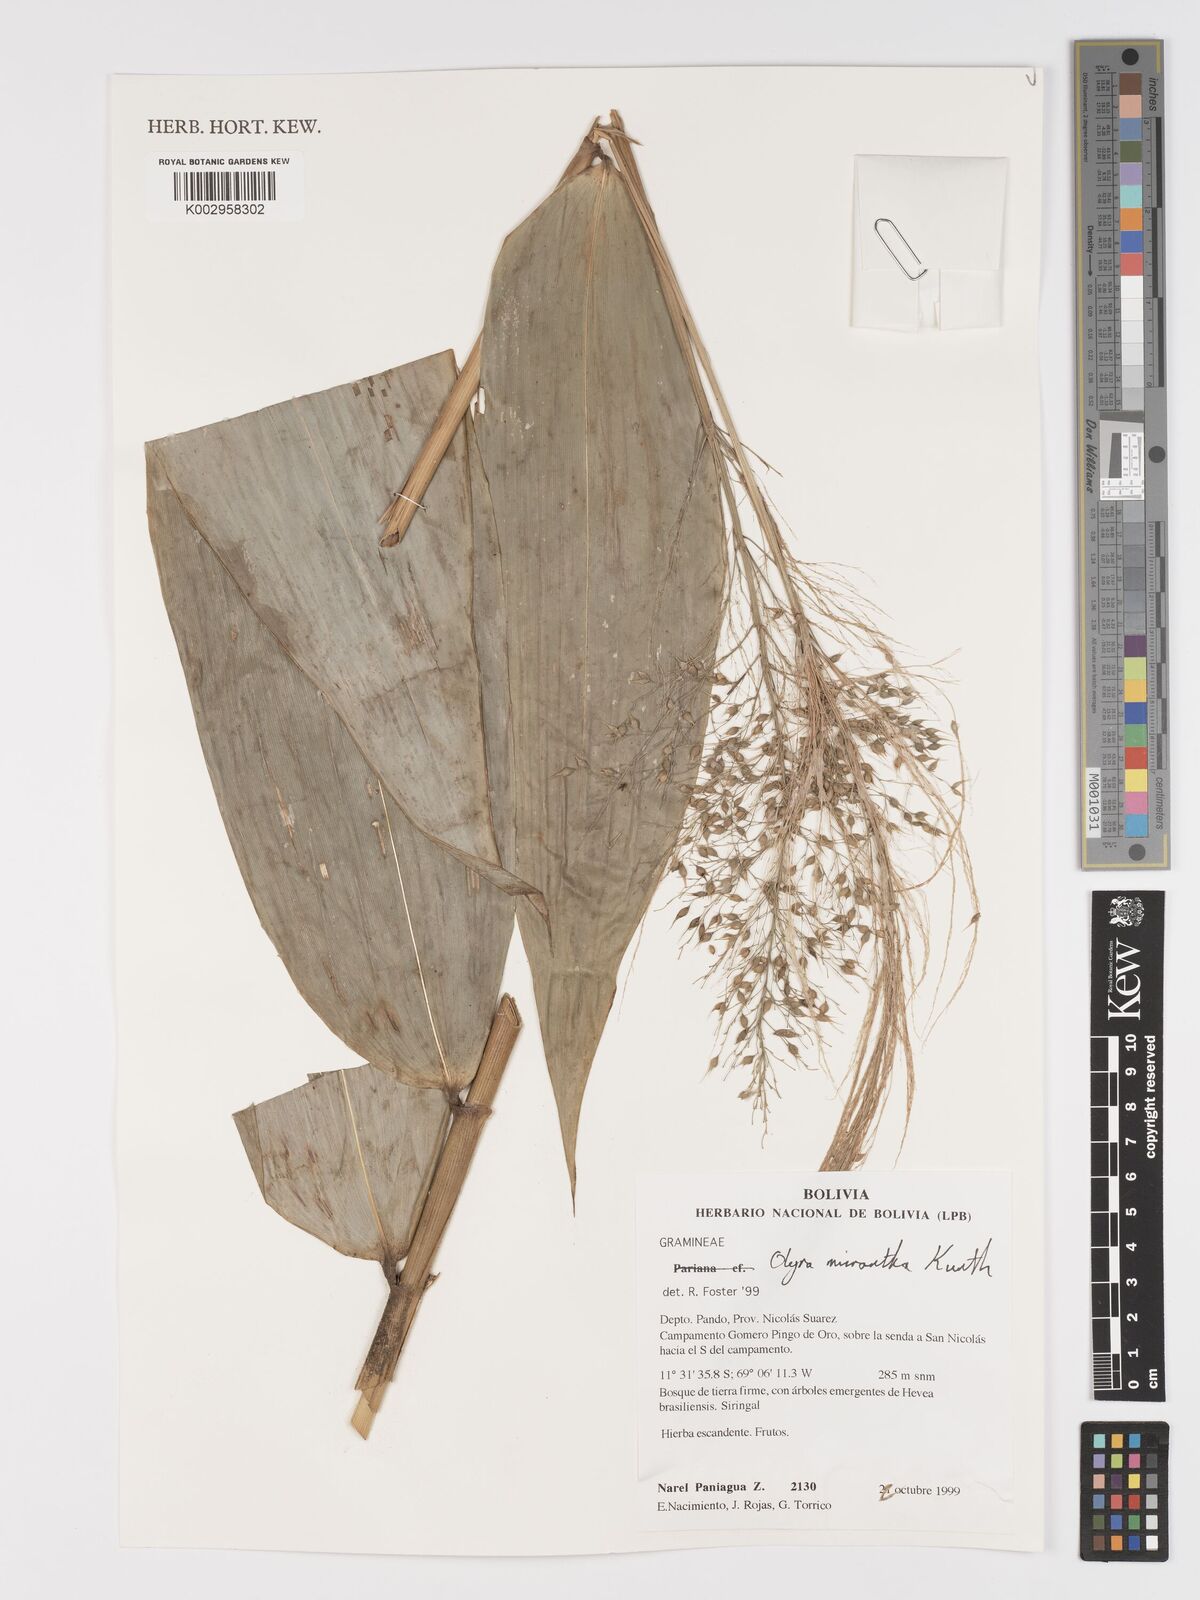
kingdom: Plantae
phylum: Tracheophyta
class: Liliopsida
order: Poales
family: Poaceae
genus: Taquara
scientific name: Taquara micrantha
